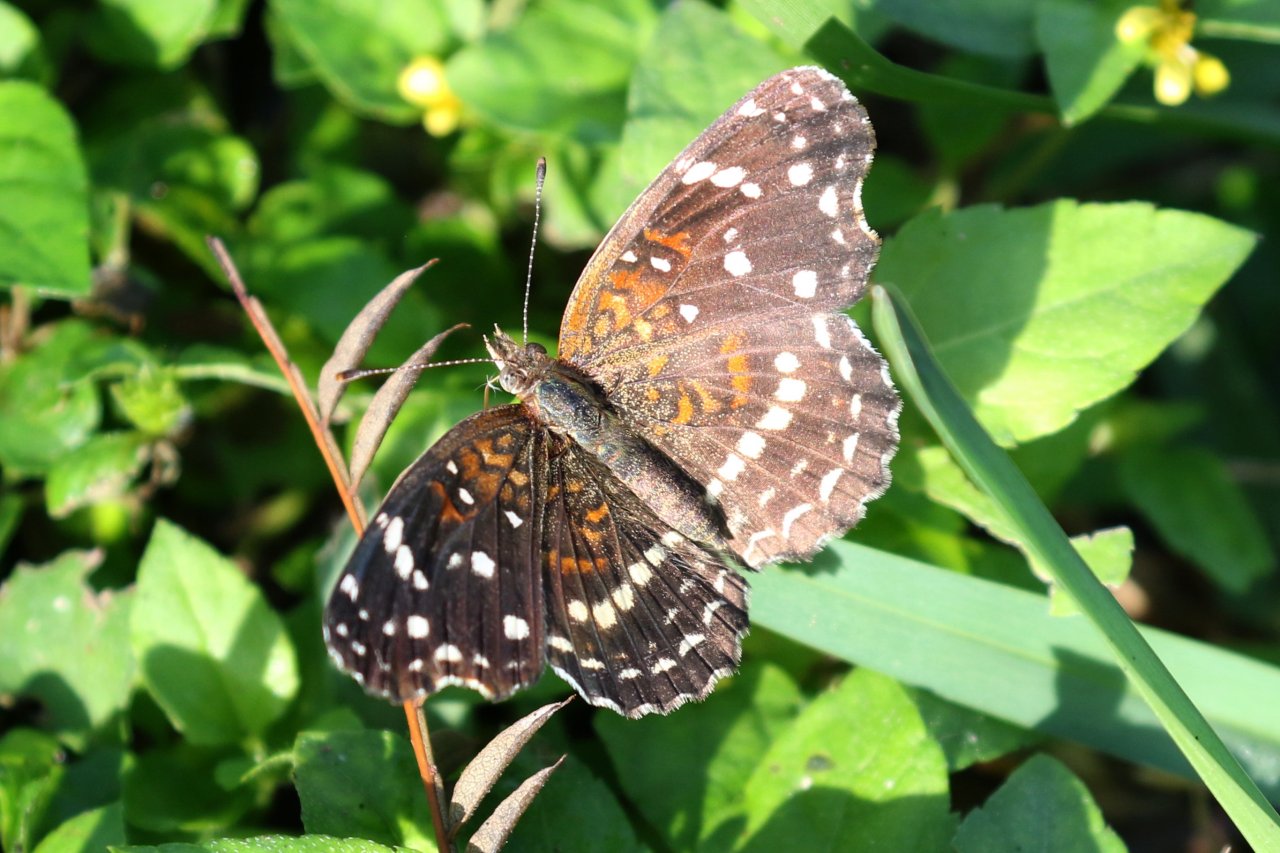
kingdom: Animalia
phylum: Arthropoda
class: Insecta
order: Lepidoptera
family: Nymphalidae
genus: Anthanassa
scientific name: Anthanassa texana
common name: Texan Crescent
